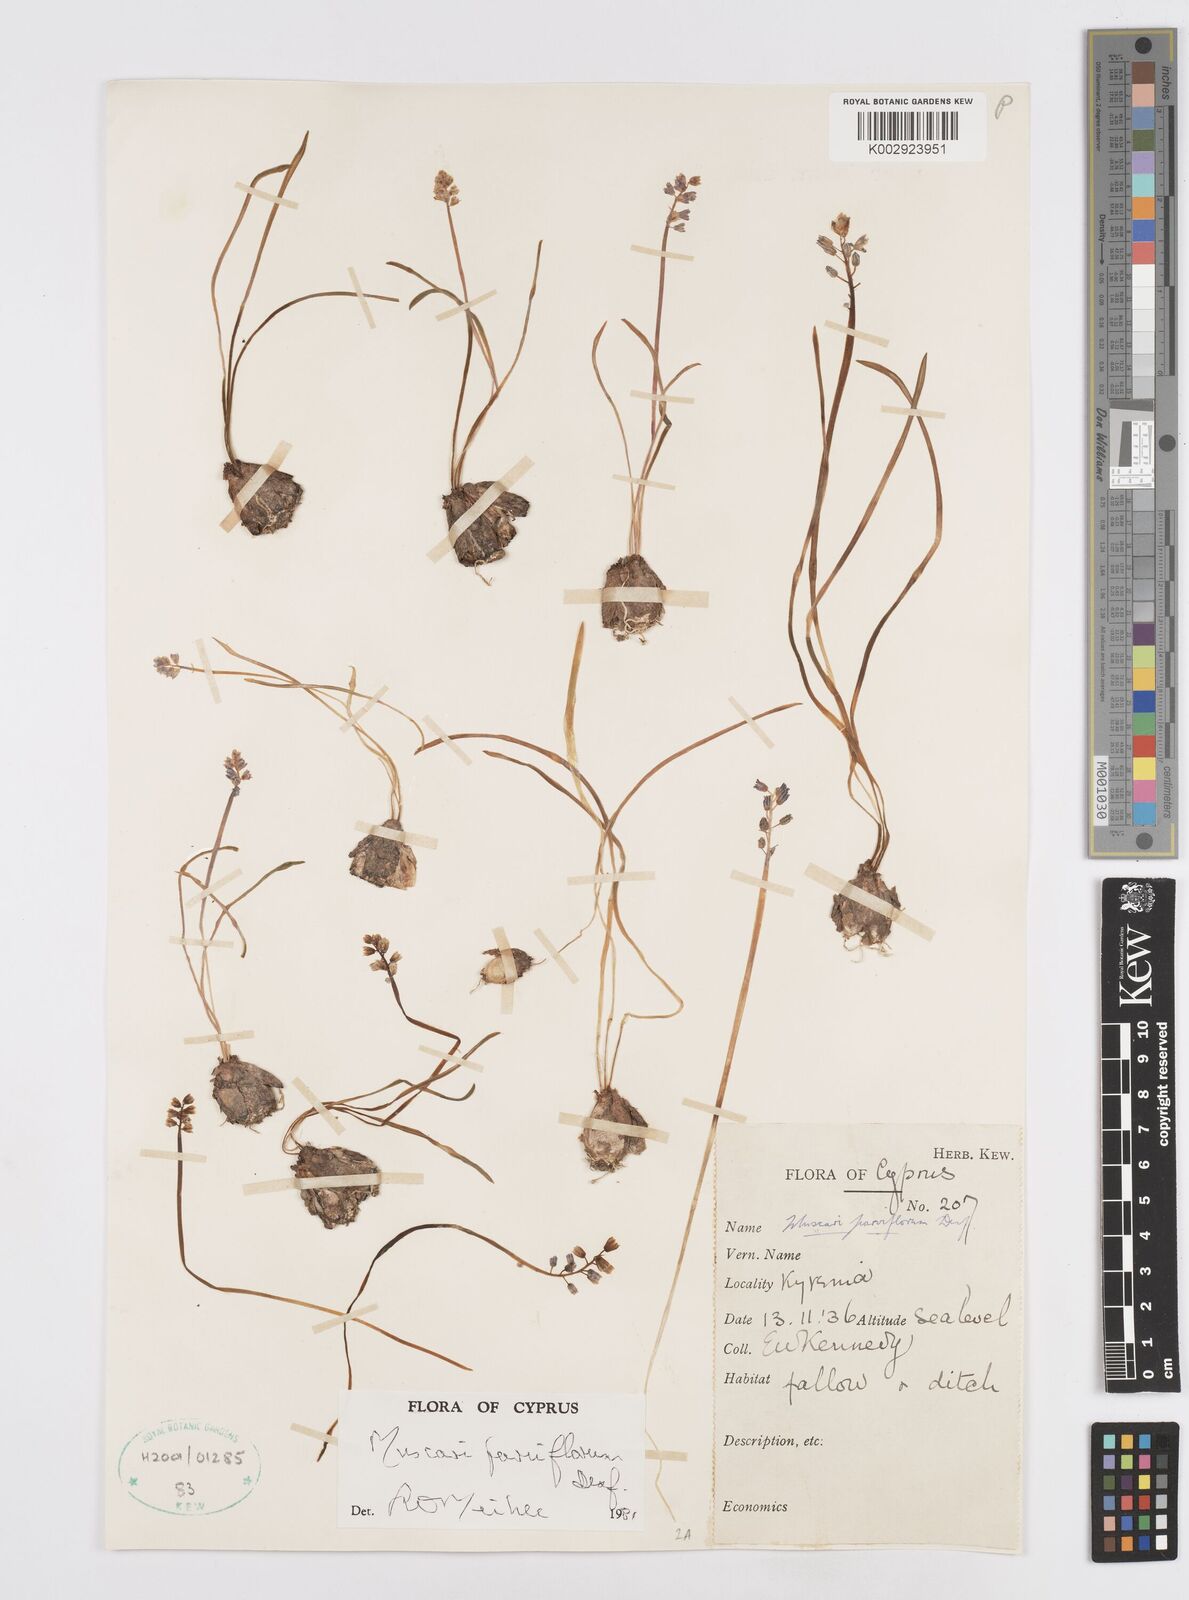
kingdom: Plantae
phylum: Tracheophyta
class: Liliopsida
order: Asparagales
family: Asparagaceae
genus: Muscari
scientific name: Muscari parviflorum
